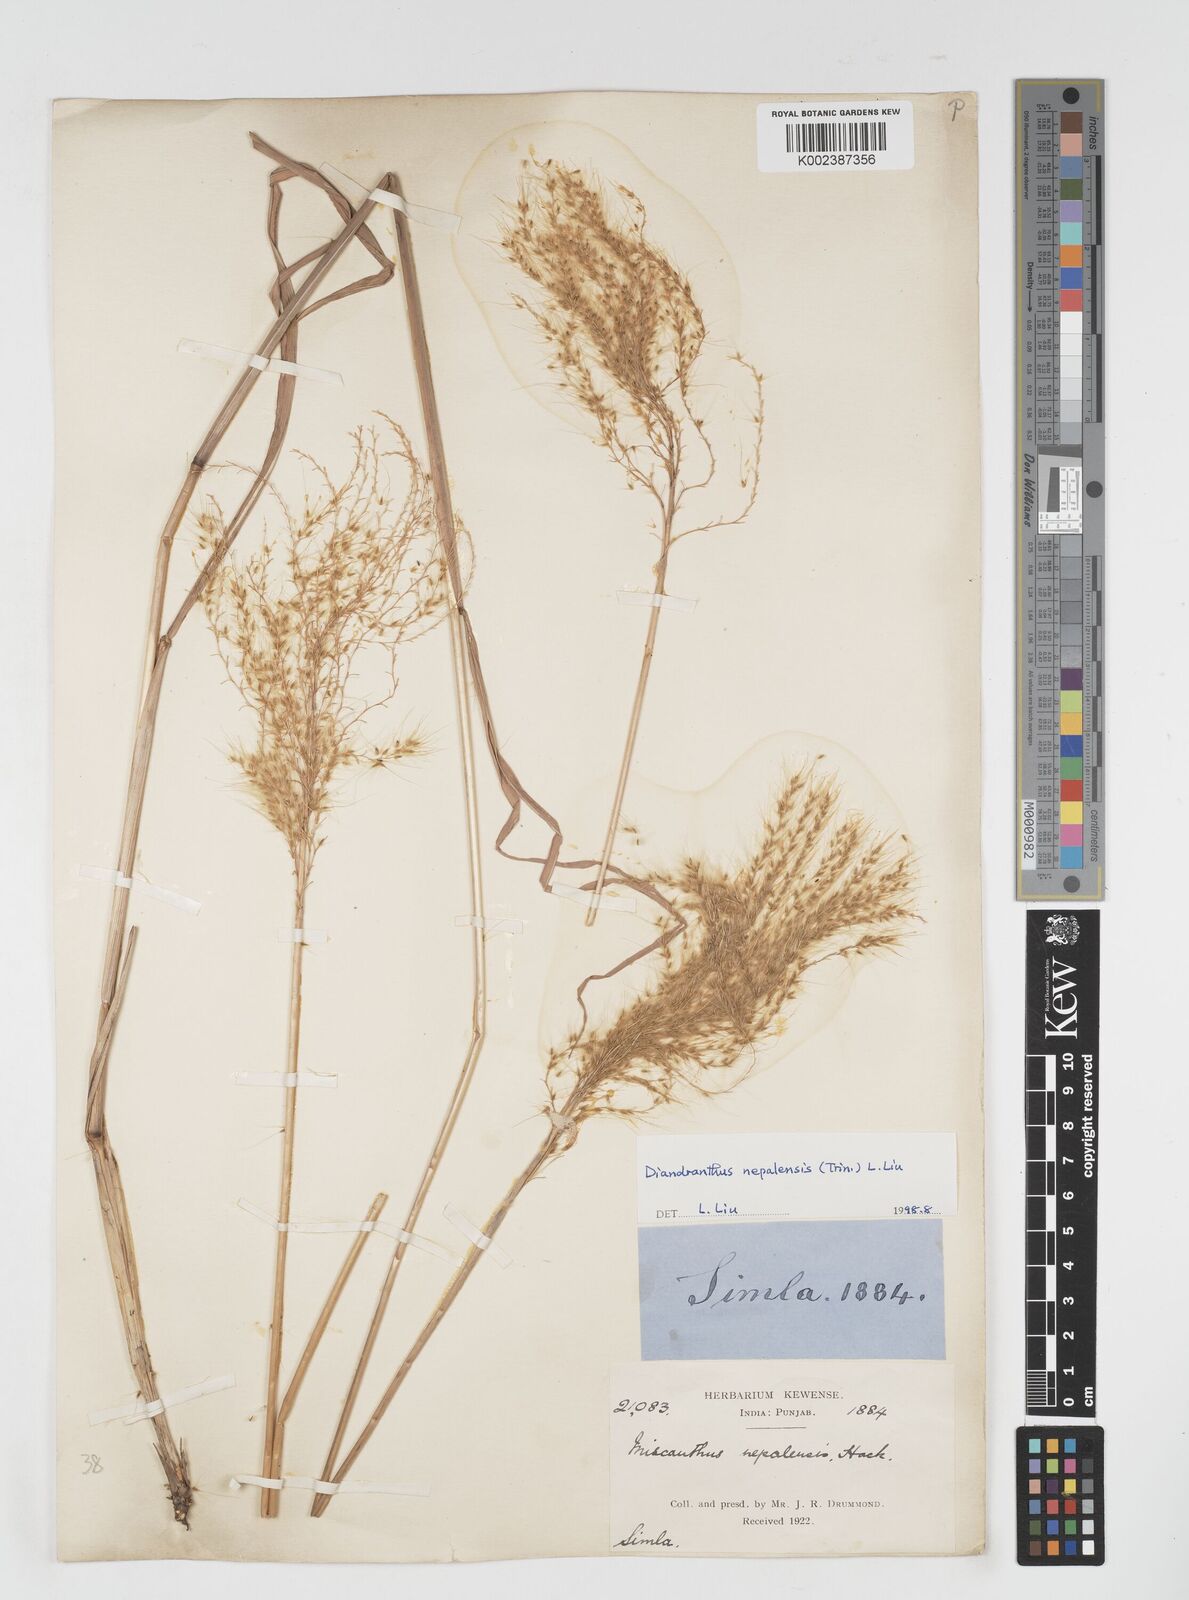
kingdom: Plantae
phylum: Tracheophyta
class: Liliopsida
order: Poales
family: Poaceae
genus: Miscanthus
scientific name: Miscanthus nepalensis
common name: Nepal silver grass
